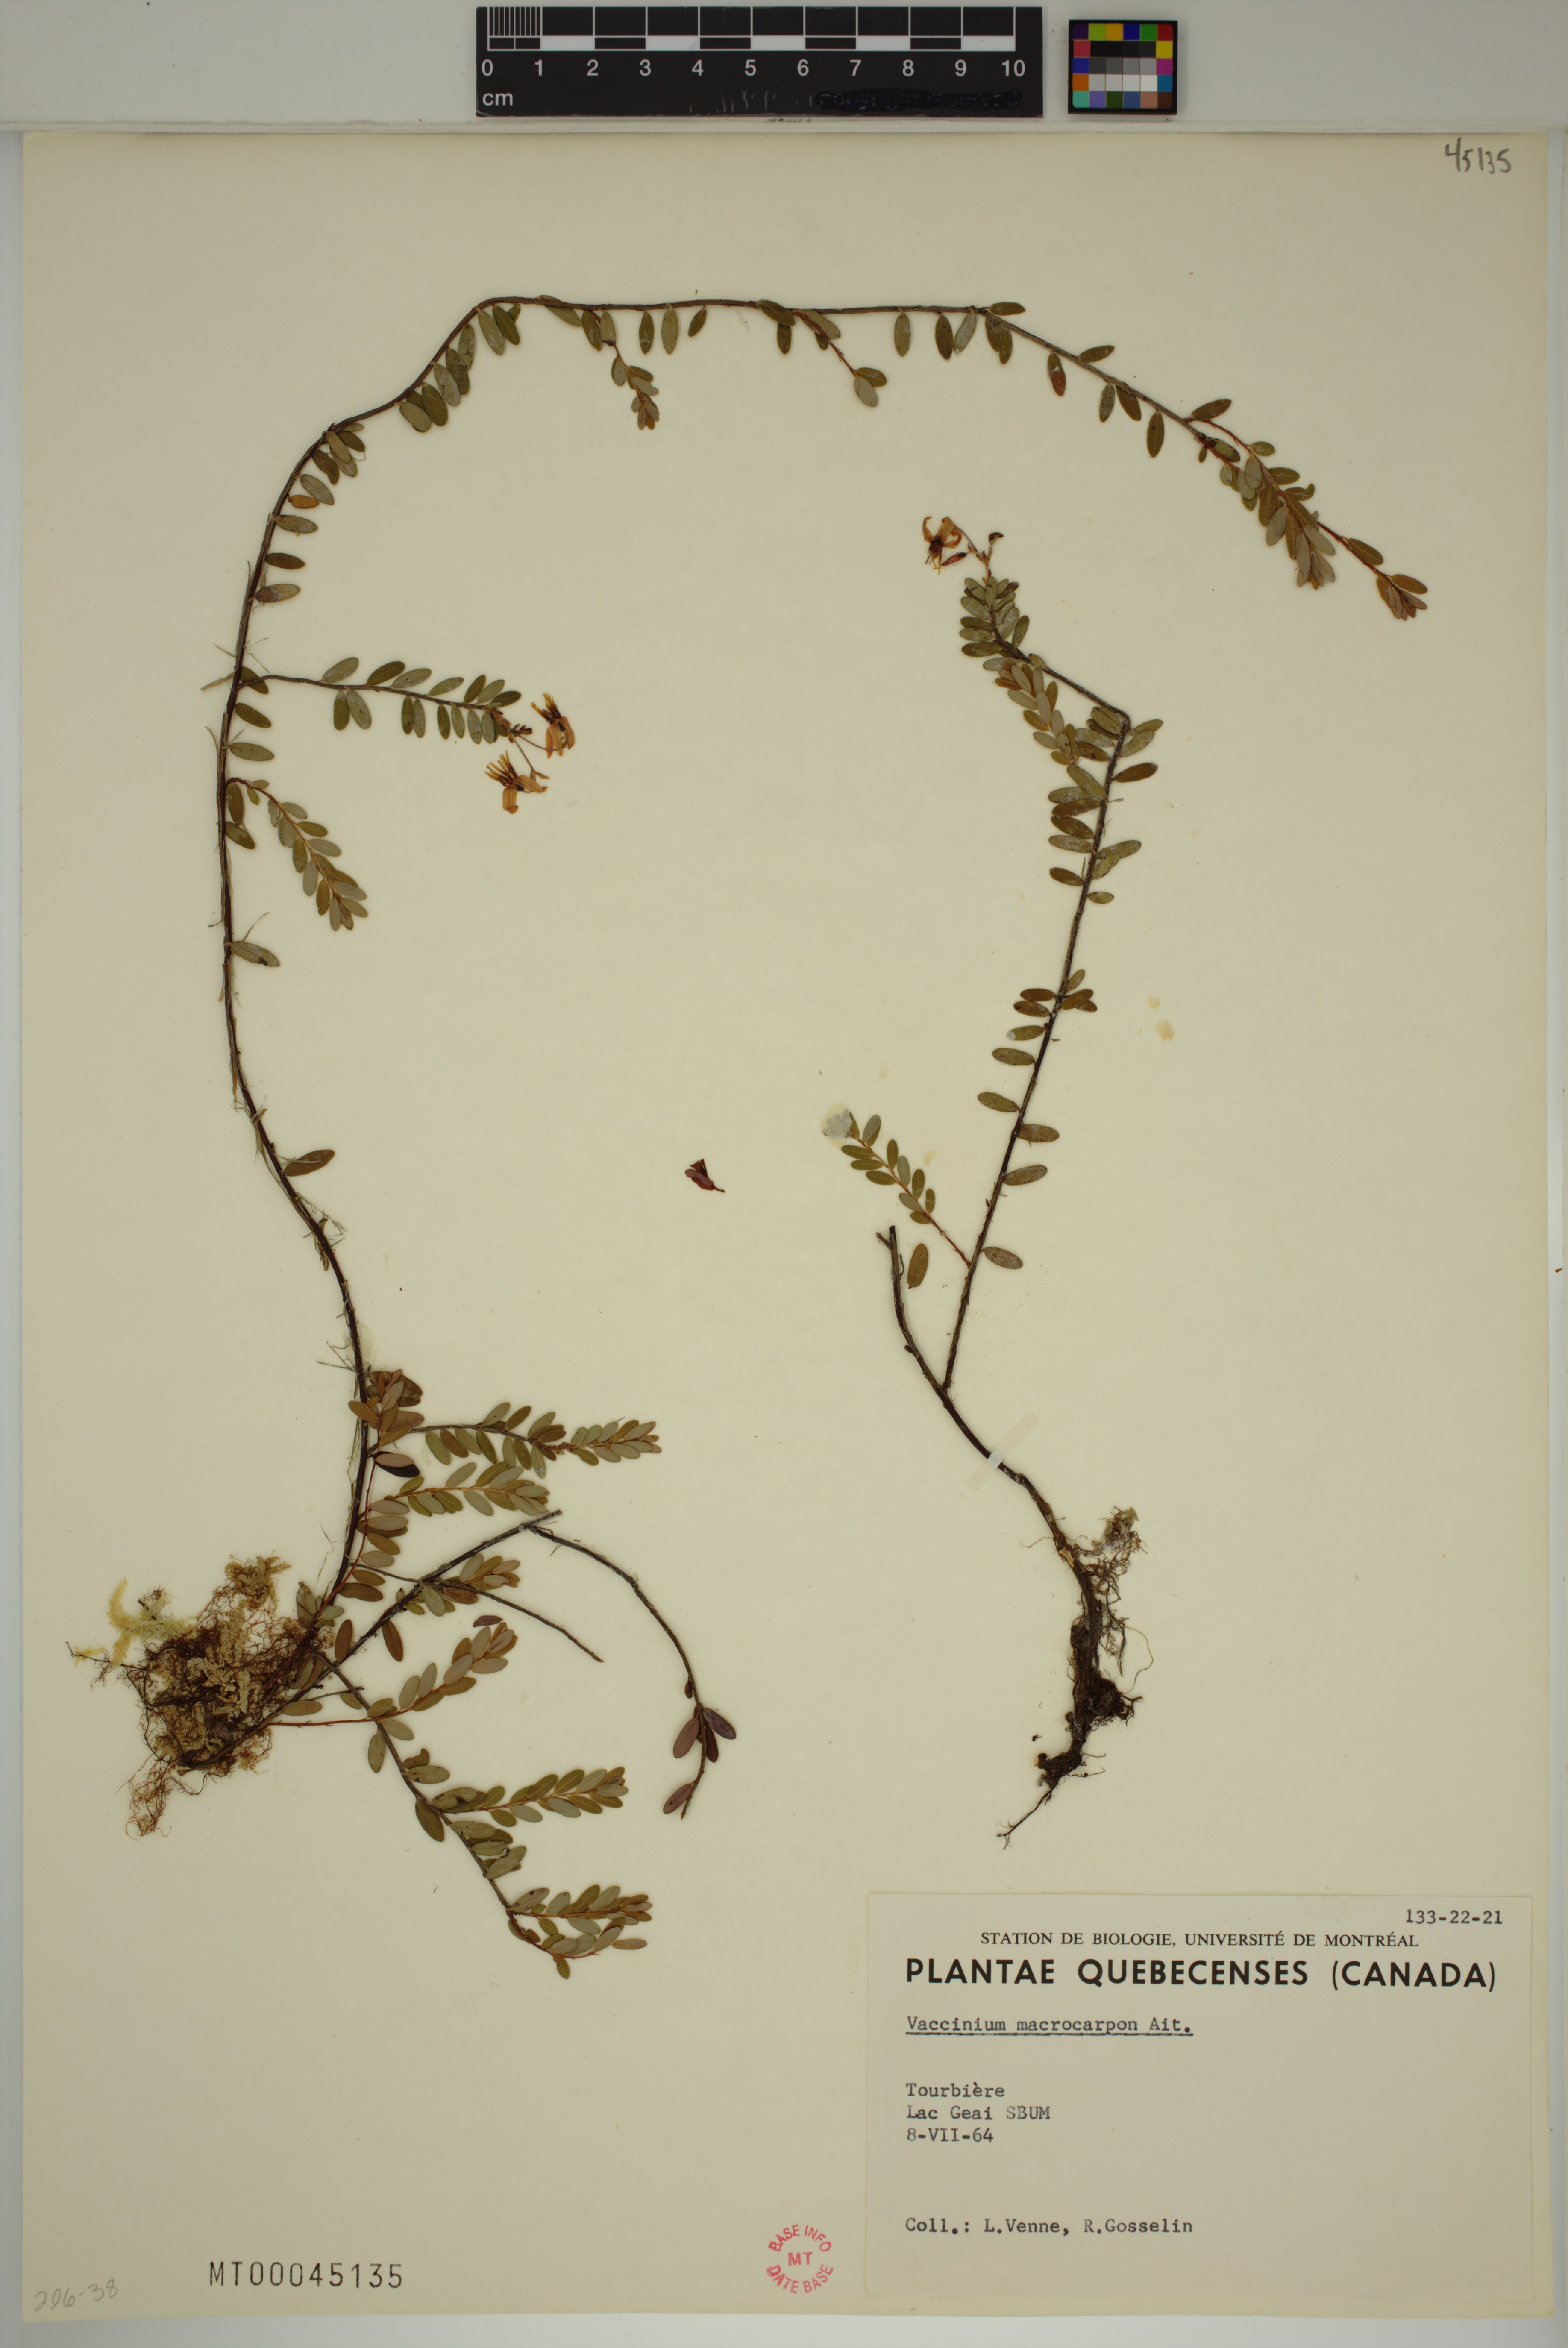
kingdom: Plantae
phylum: Tracheophyta
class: Magnoliopsida
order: Ericales
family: Ericaceae
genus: Vaccinium
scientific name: Vaccinium macrocarpon
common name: American cranberry
